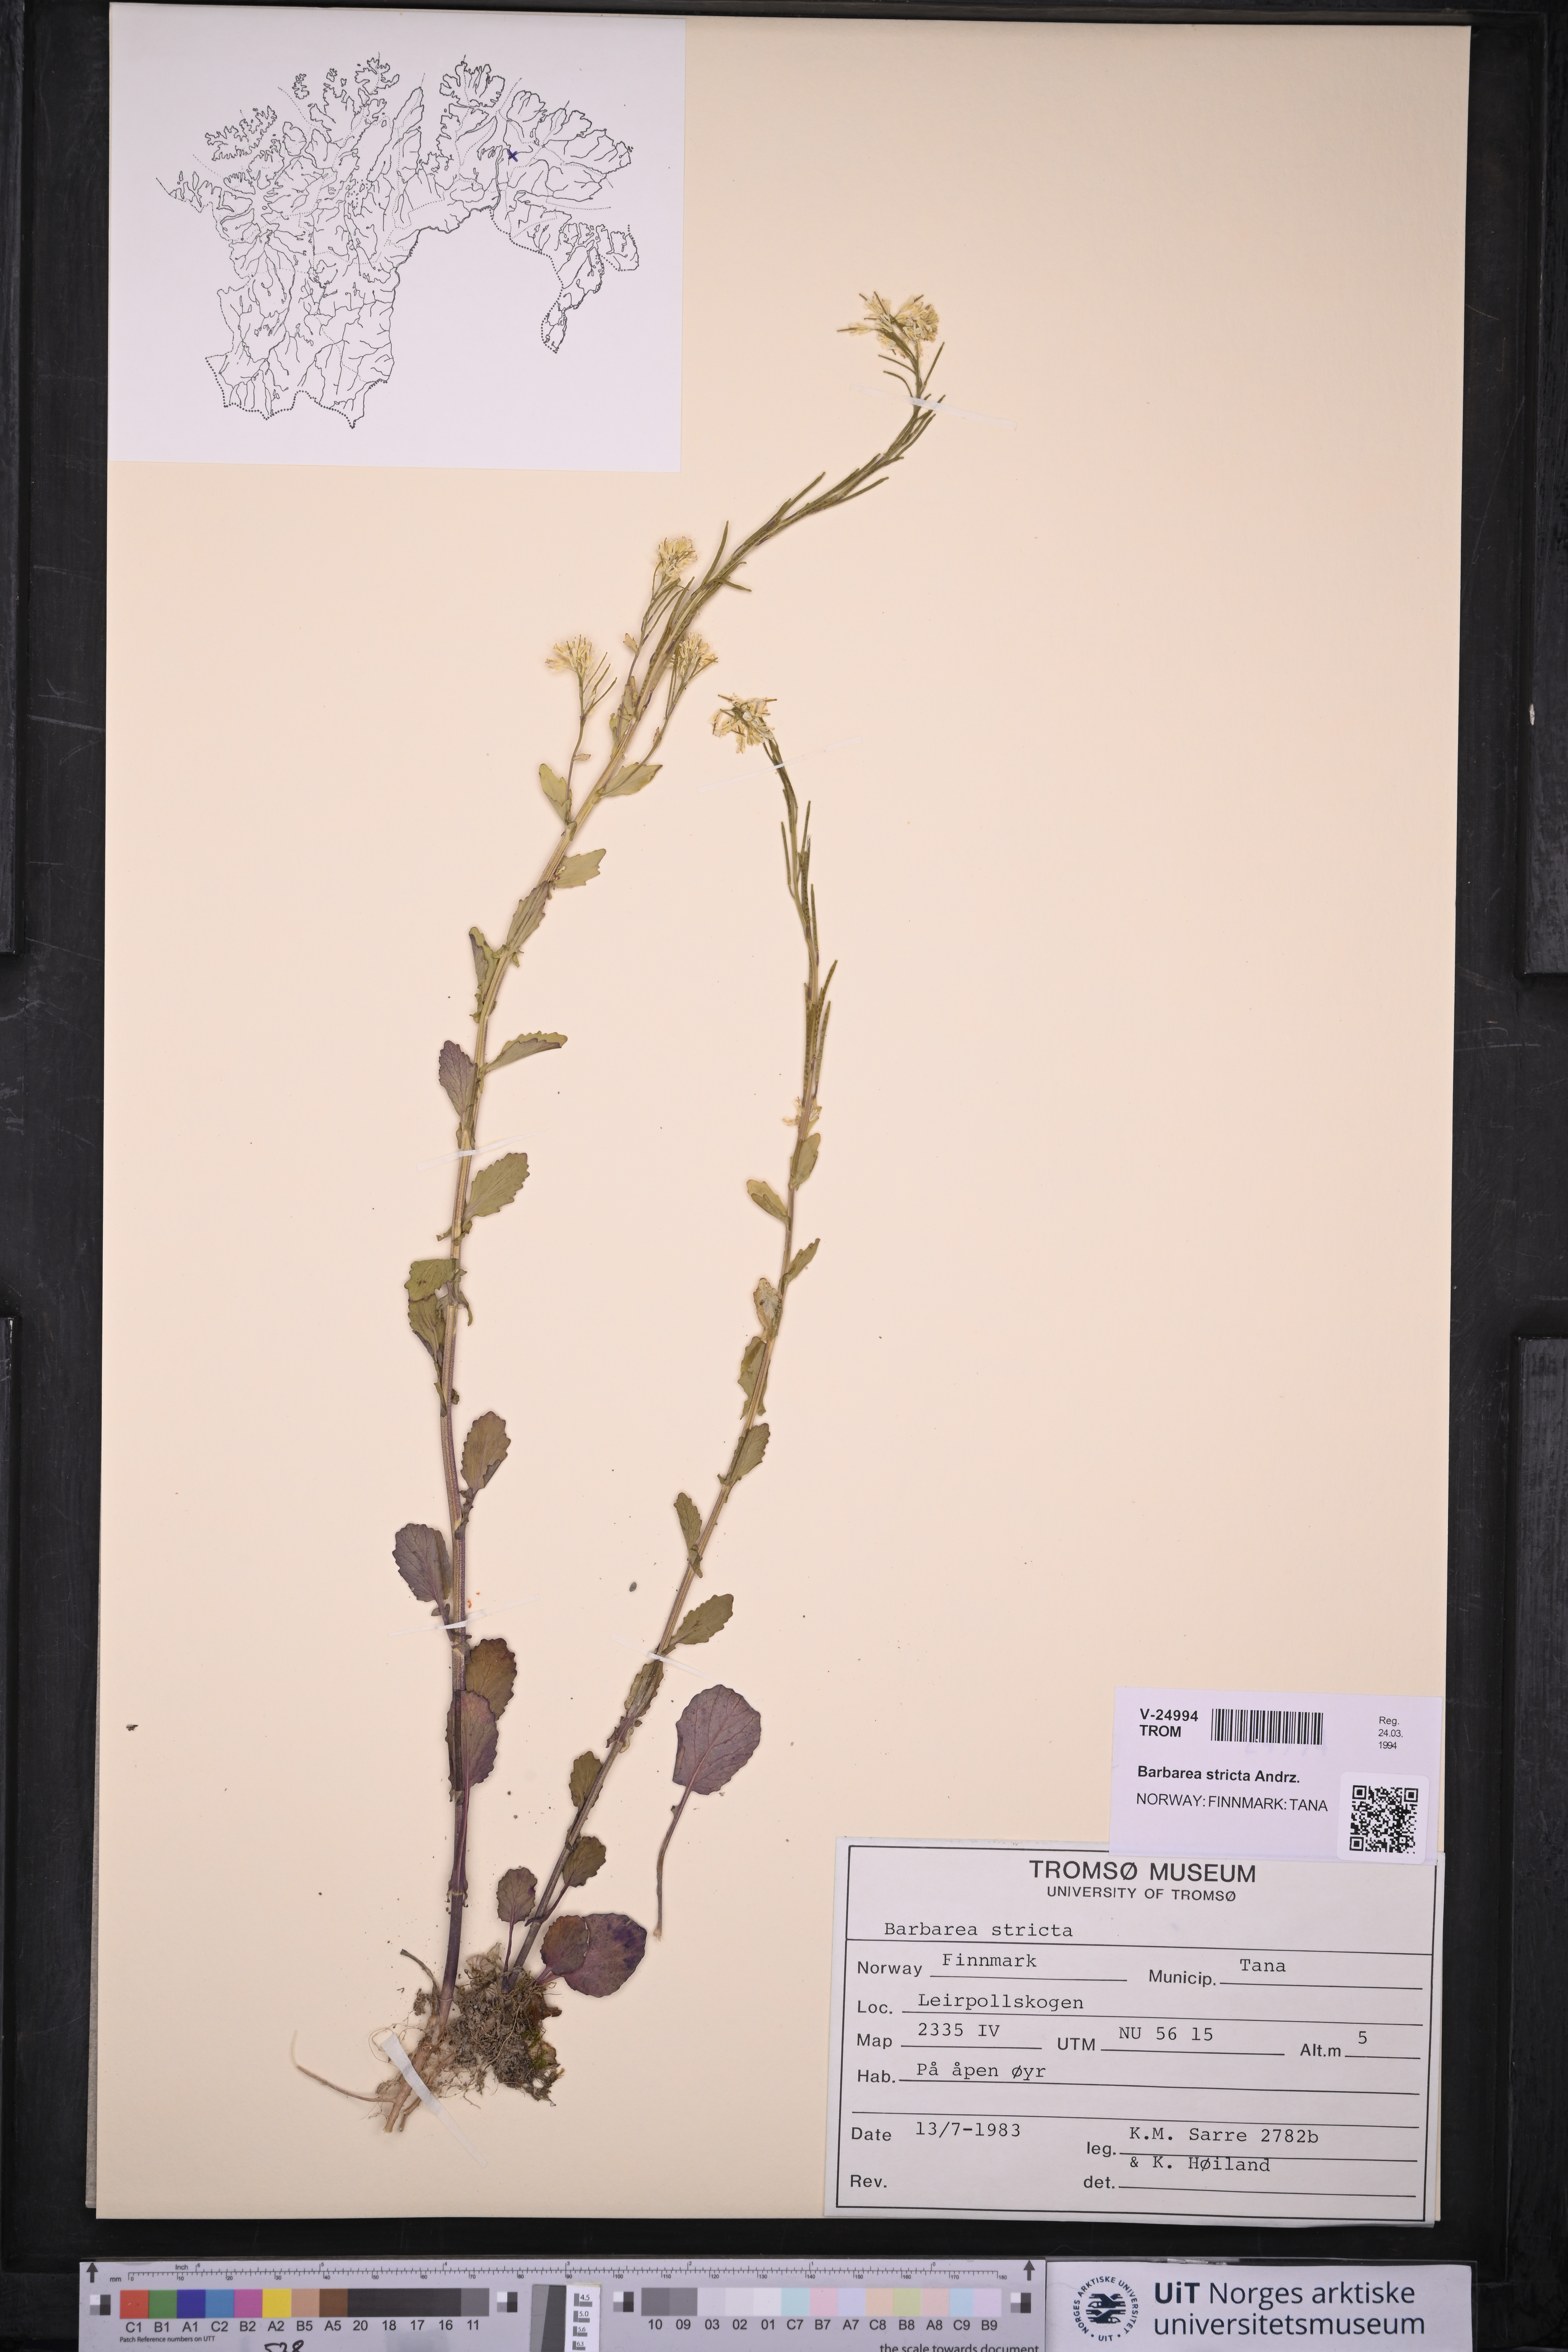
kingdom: Plantae
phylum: Tracheophyta
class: Magnoliopsida
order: Brassicales
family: Brassicaceae
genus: Barbarea
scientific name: Barbarea stricta
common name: Small-flowered winter-cress
